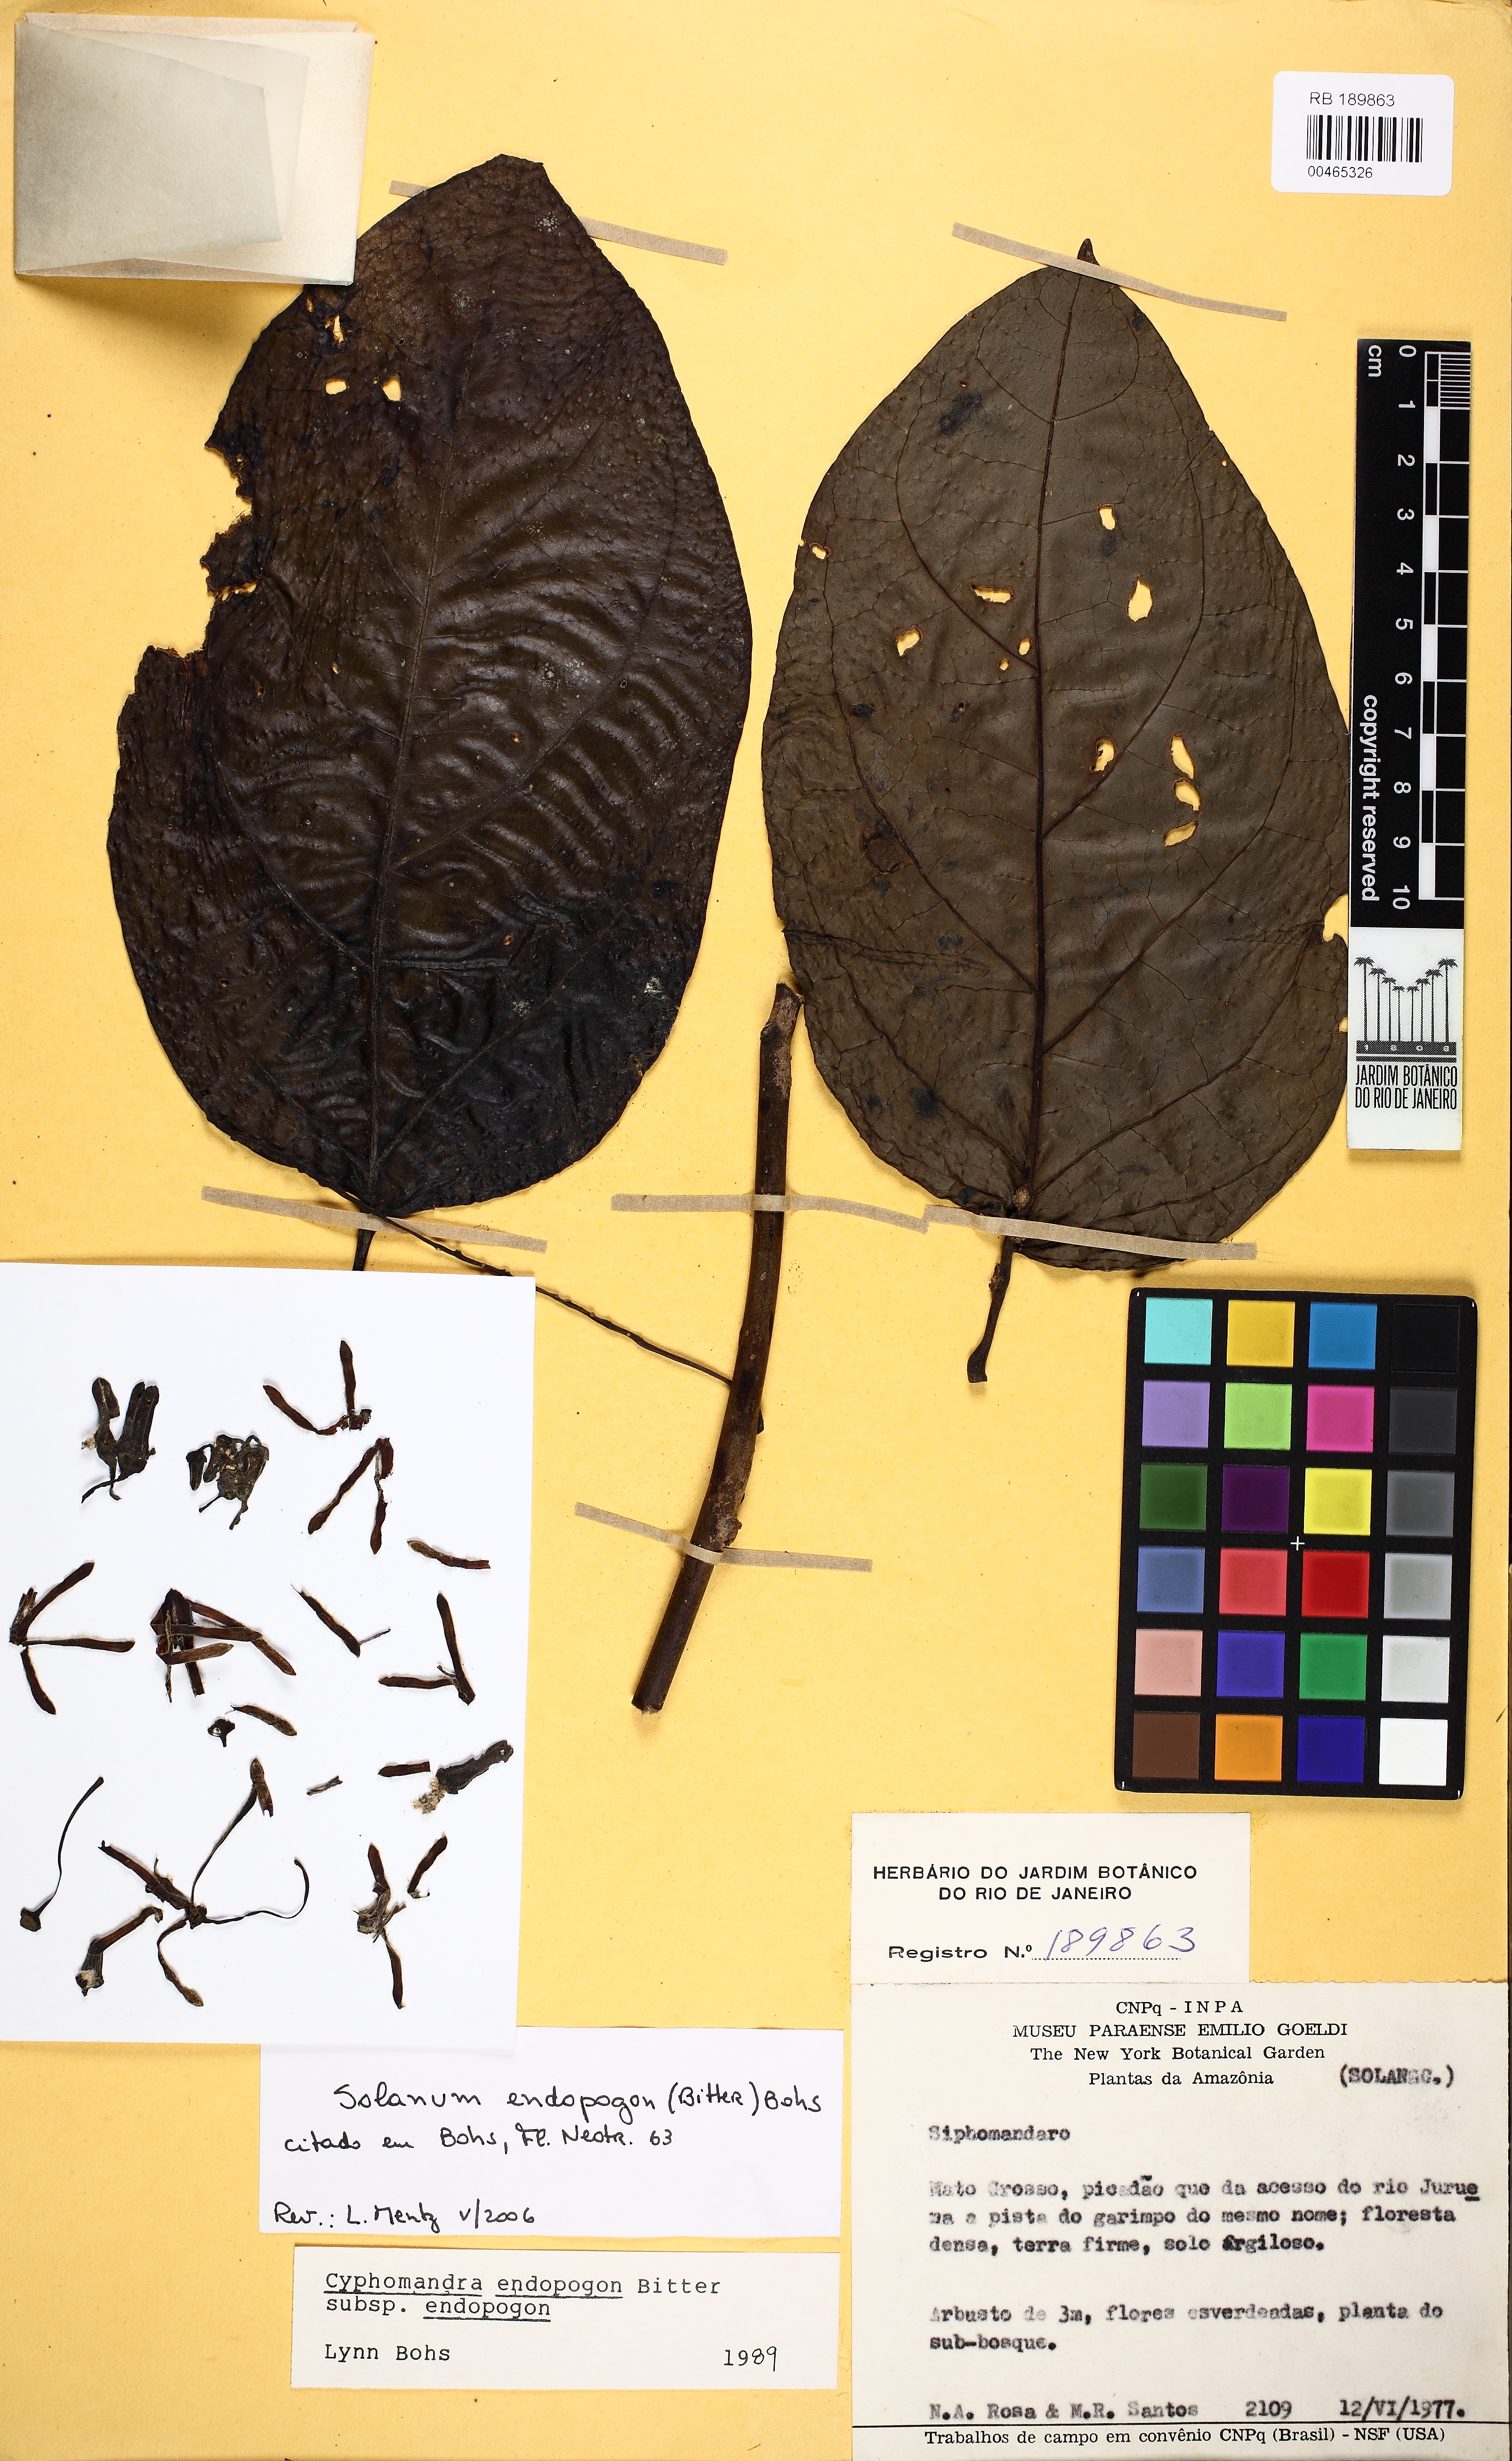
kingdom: Plantae
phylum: Tracheophyta
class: Magnoliopsida
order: Solanales
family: Solanaceae
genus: Solanum
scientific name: Solanum endopogon
